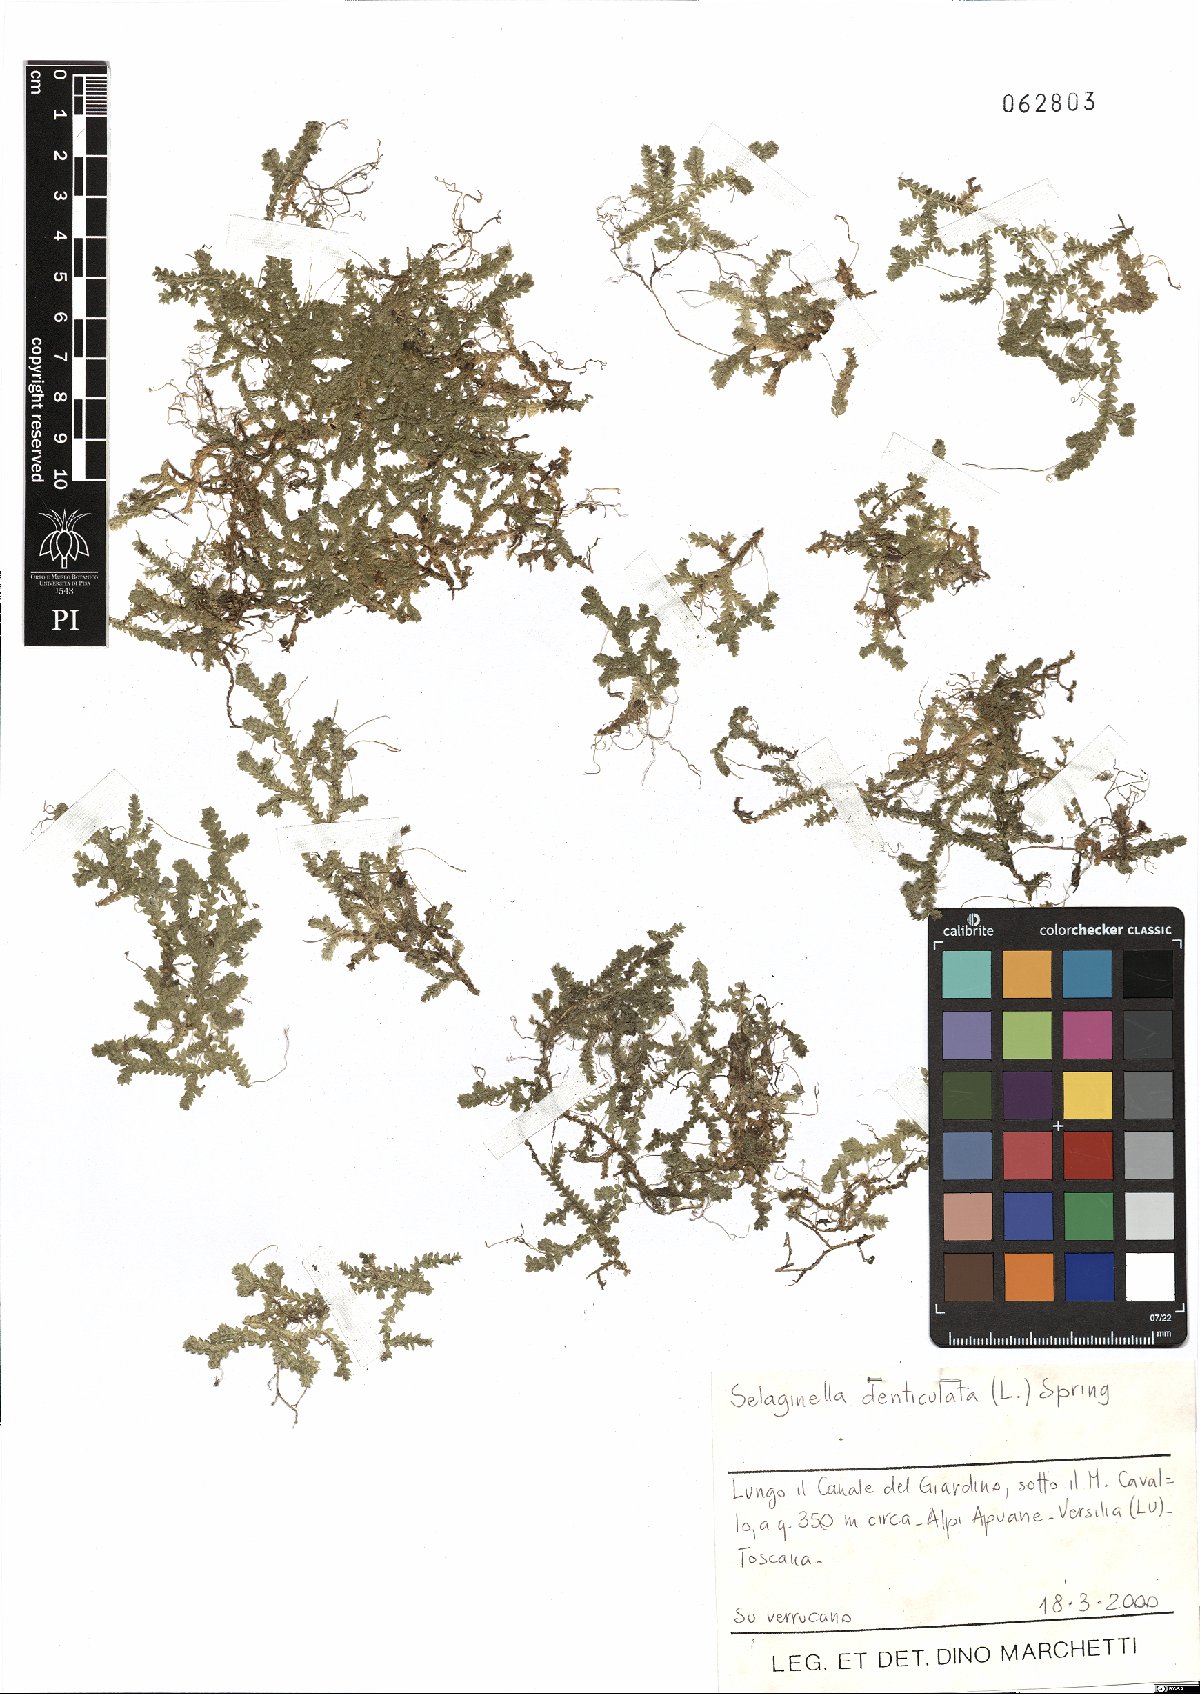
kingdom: Plantae
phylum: Tracheophyta
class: Lycopodiopsida
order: Selaginellales
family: Selaginellaceae
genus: Selaginella
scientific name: Selaginella denticulata
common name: Toothed-leaved clubmoss
